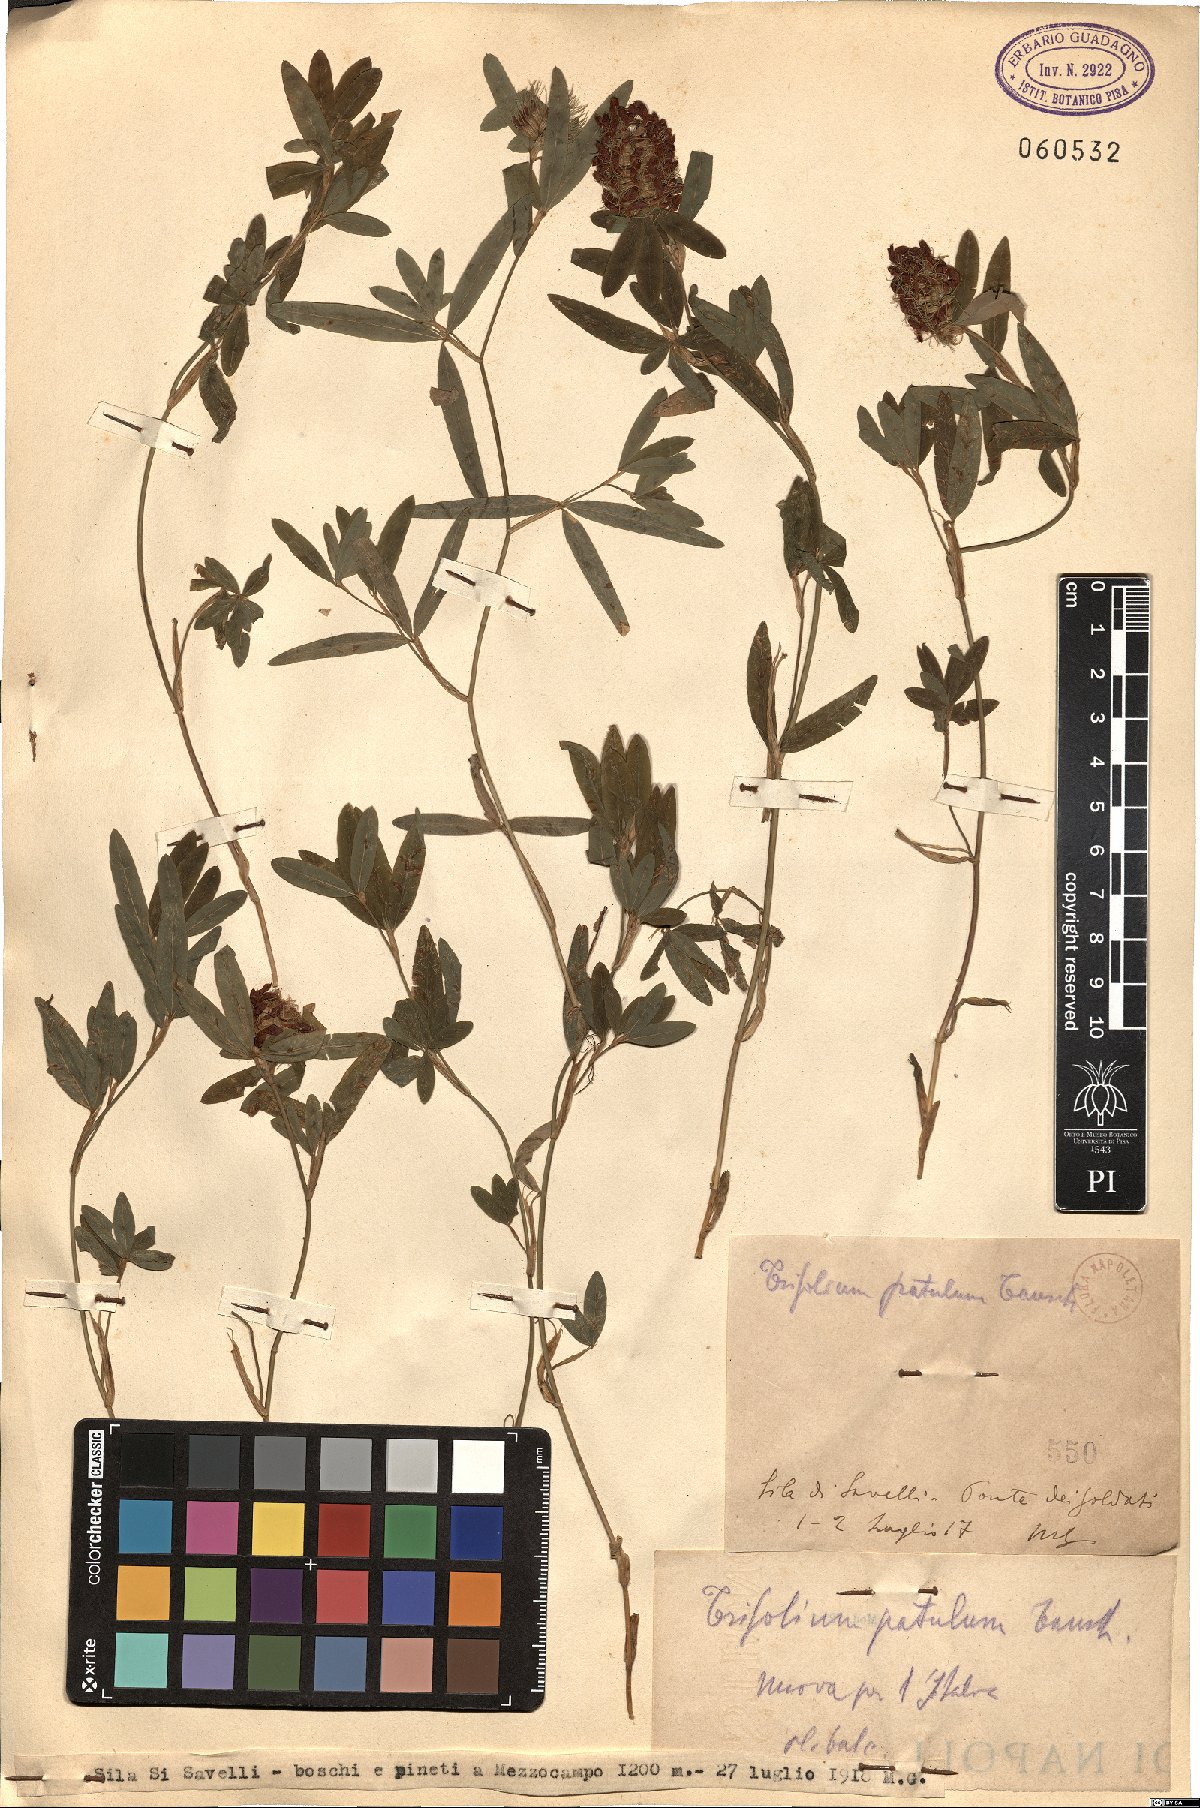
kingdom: Plantae
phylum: Tracheophyta
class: Magnoliopsida
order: Fabales
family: Fabaceae
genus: Trifolium
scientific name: Trifolium patulum
